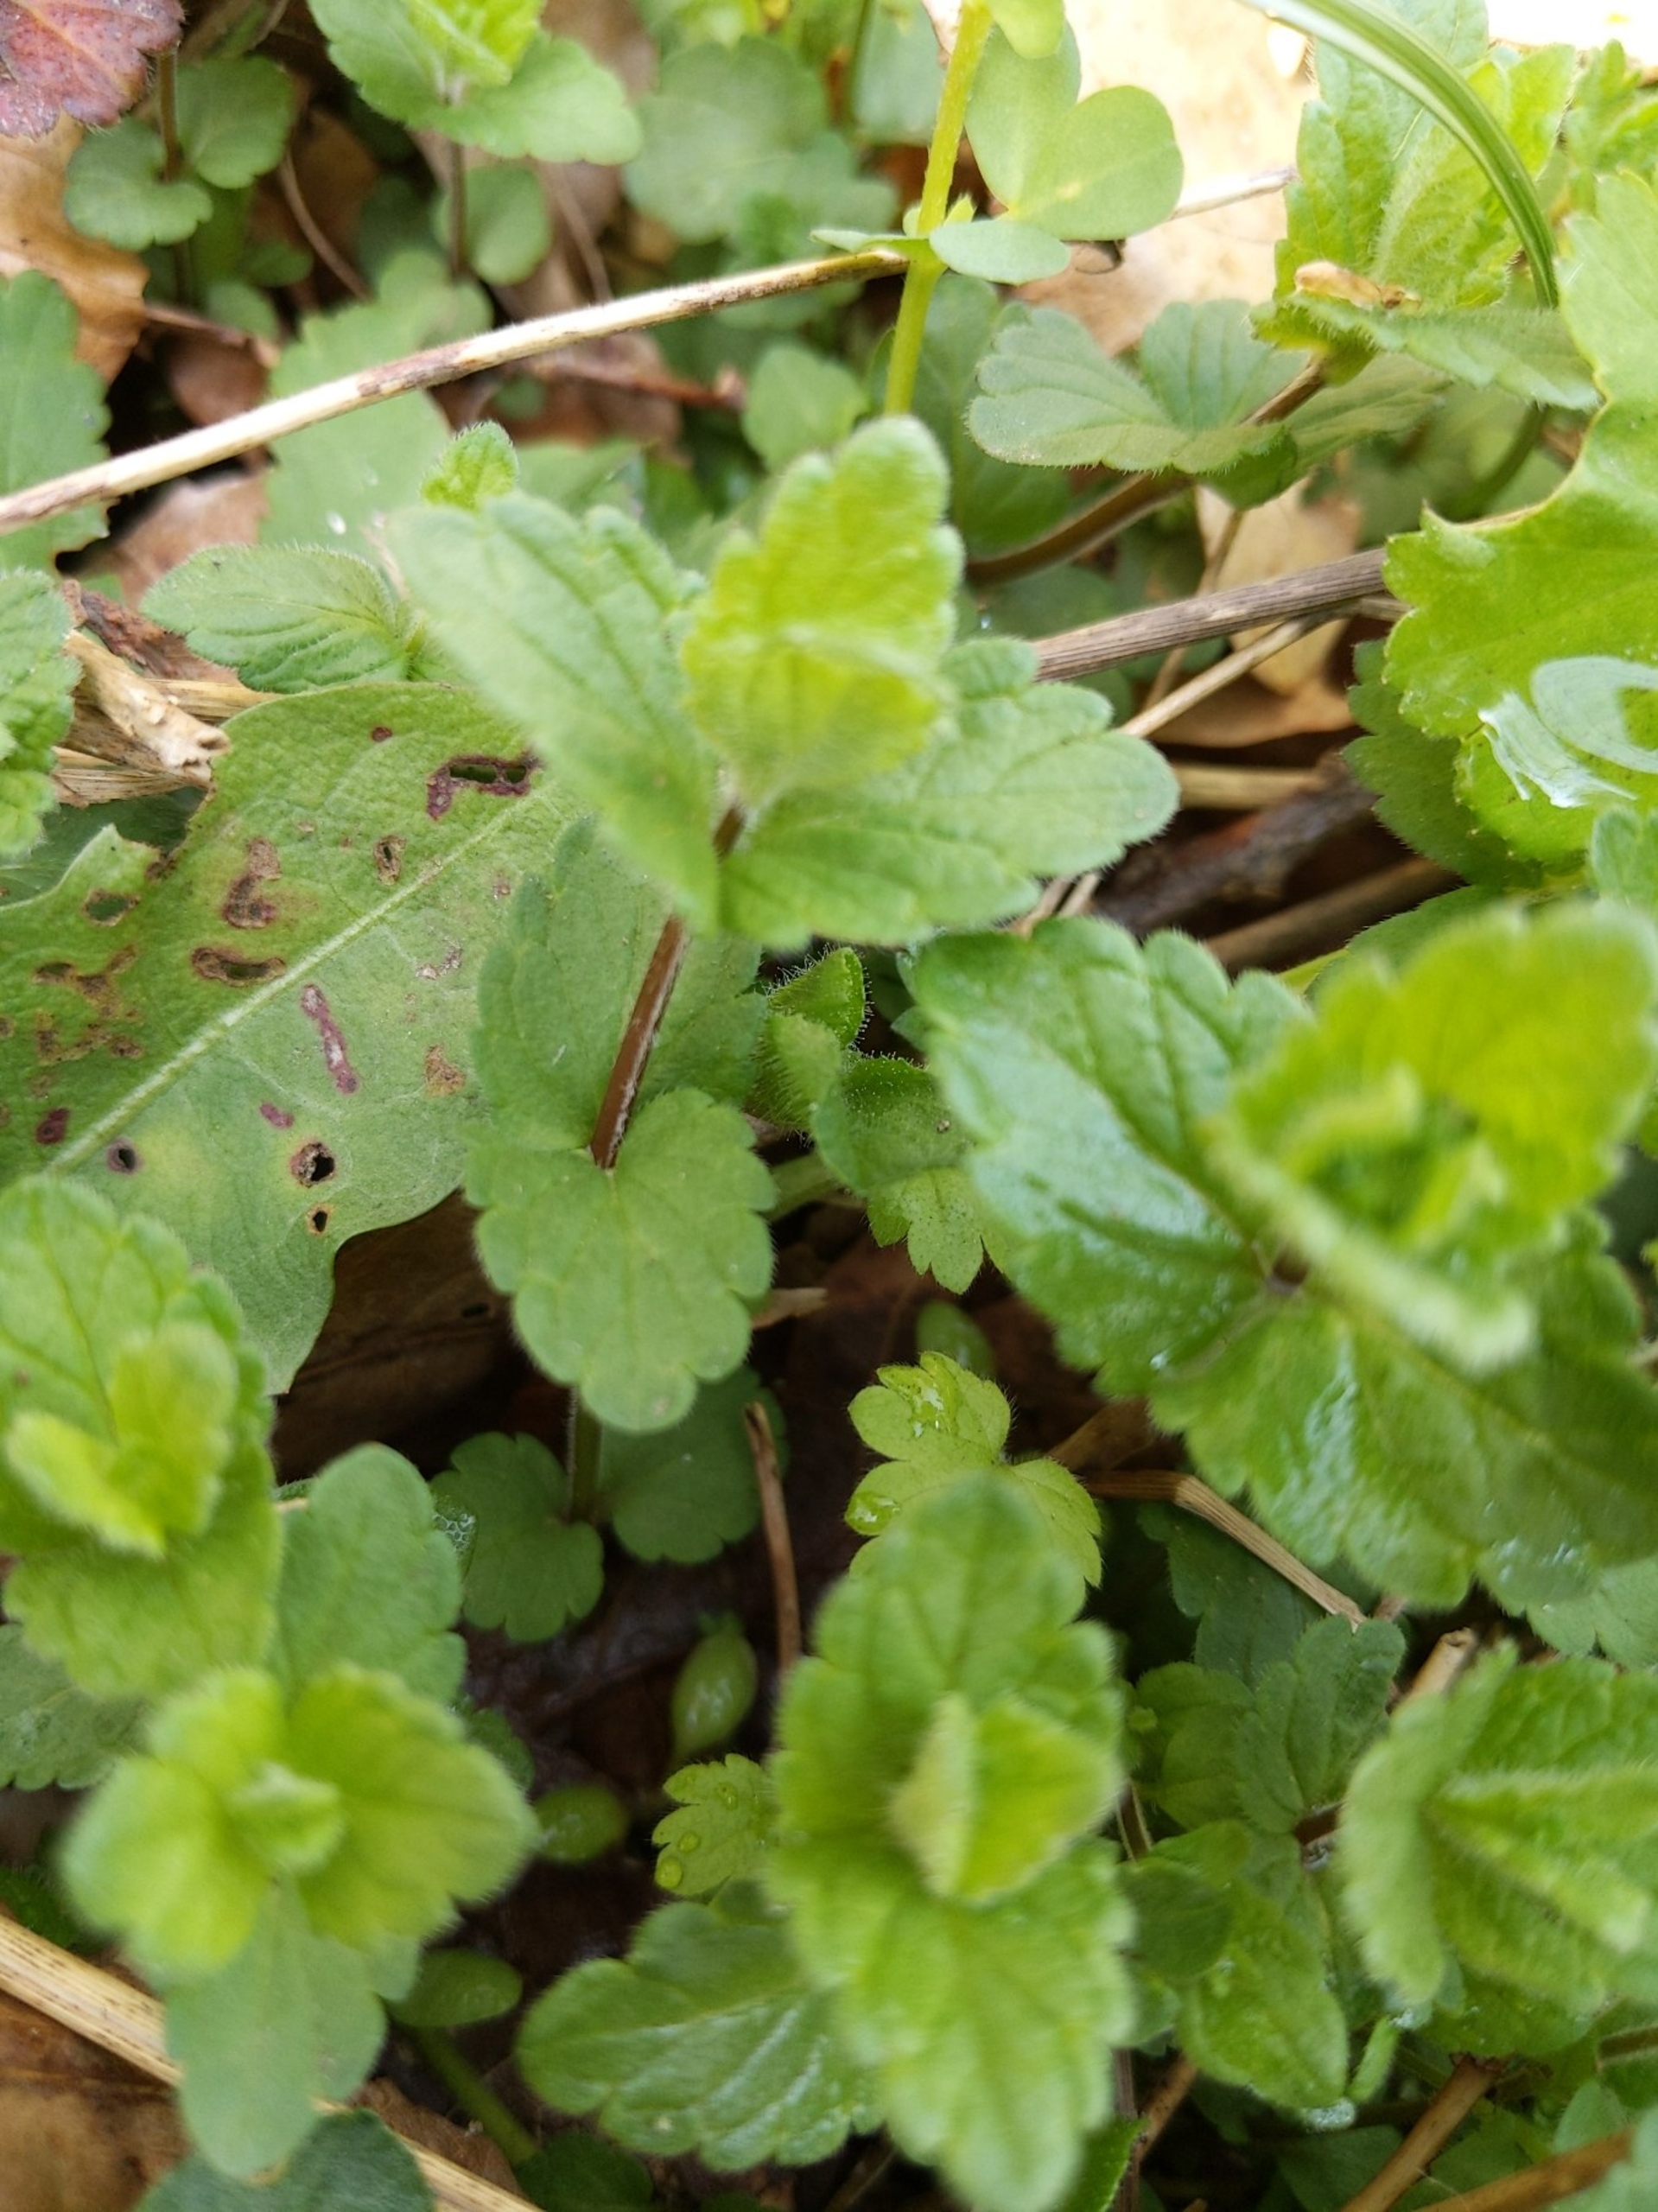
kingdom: Plantae
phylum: Tracheophyta
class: Magnoliopsida
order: Lamiales
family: Plantaginaceae
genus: Veronica
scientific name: Veronica chamaedrys
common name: Tveskægget ærenpris
